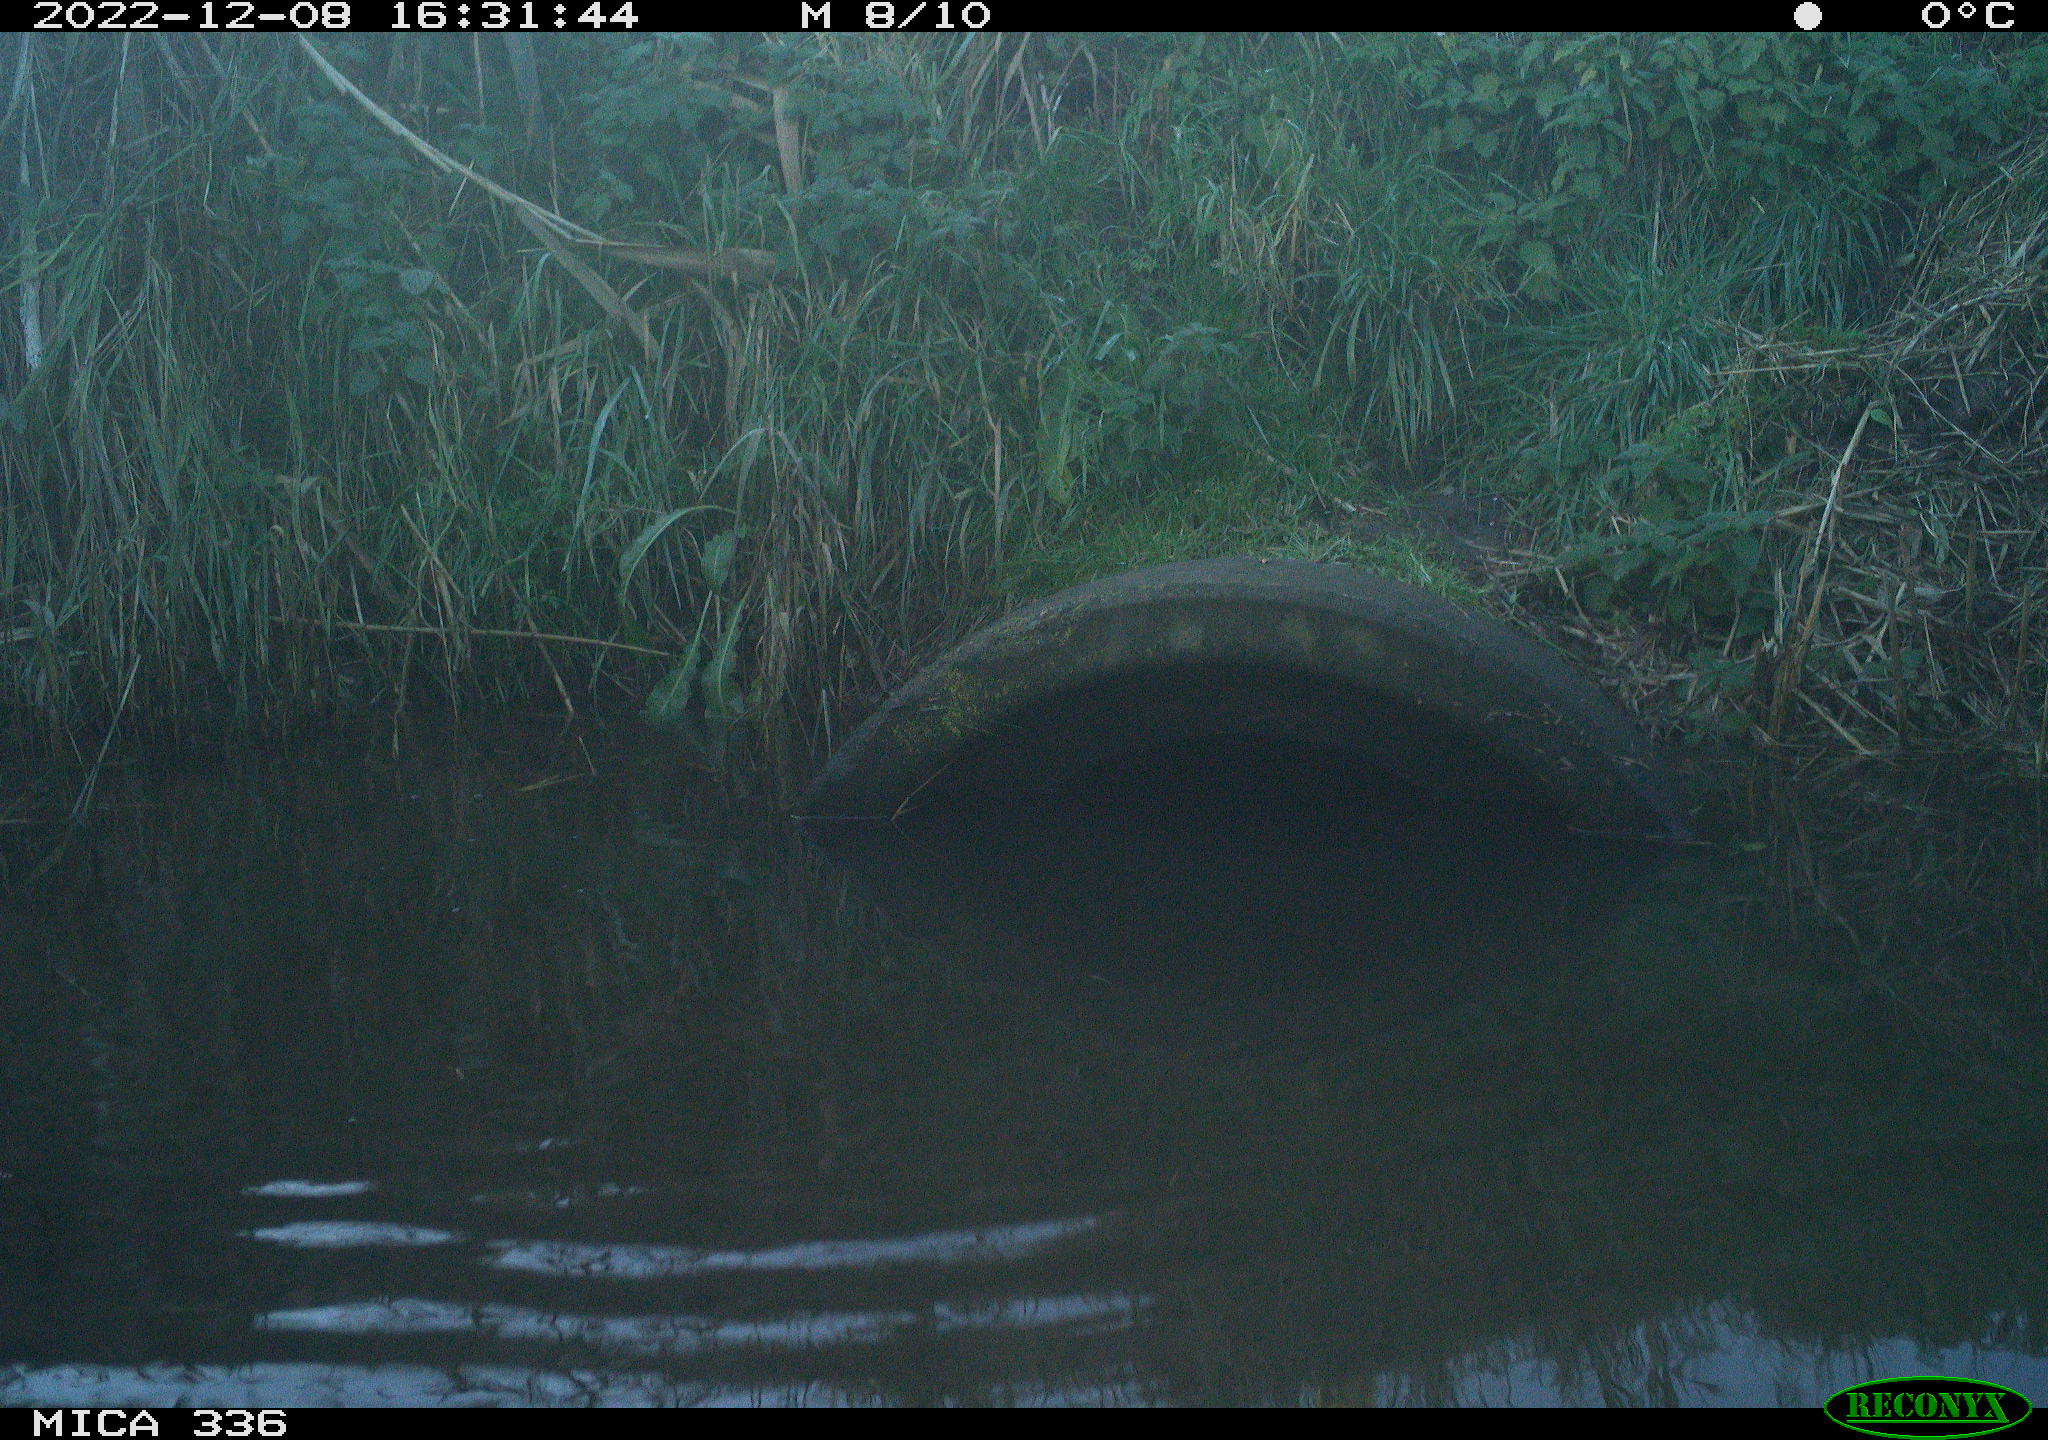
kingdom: Animalia
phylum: Chordata
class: Aves
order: Gruiformes
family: Rallidae
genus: Gallinula
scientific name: Gallinula chloropus
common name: Common moorhen
